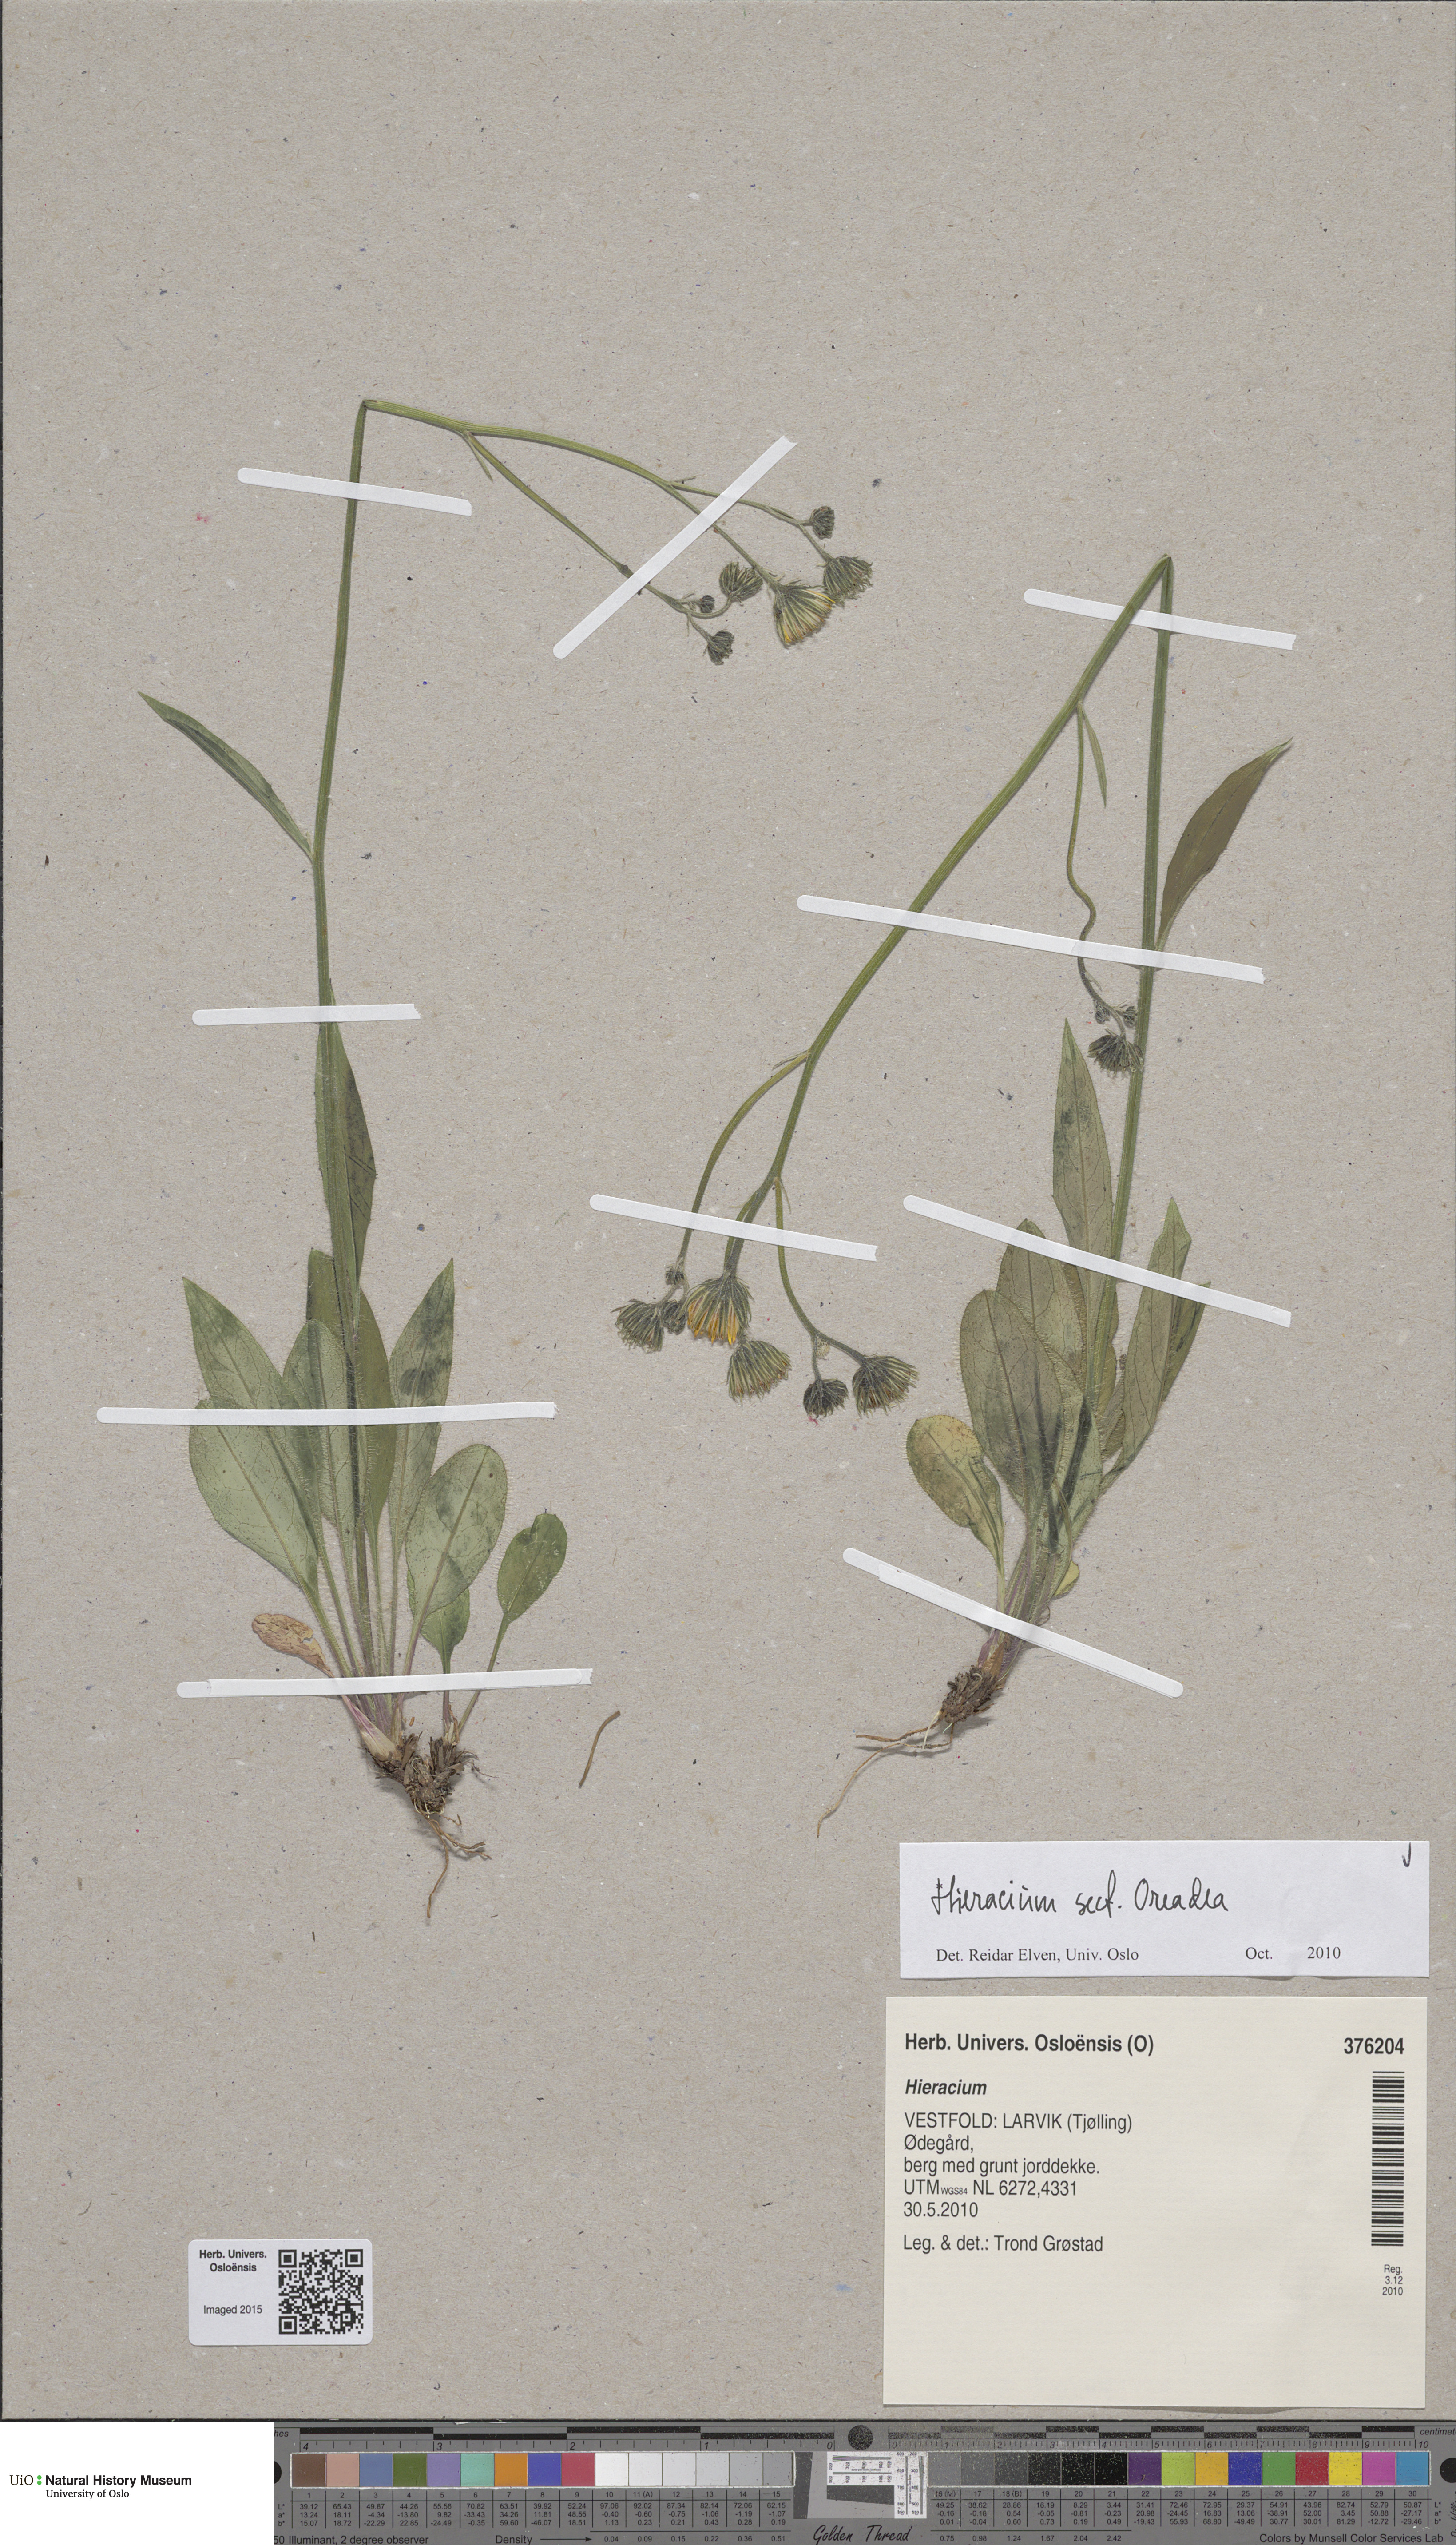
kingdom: Plantae
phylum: Tracheophyta
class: Magnoliopsida
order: Asterales
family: Asteraceae
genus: Hieracium
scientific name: Hieracium
